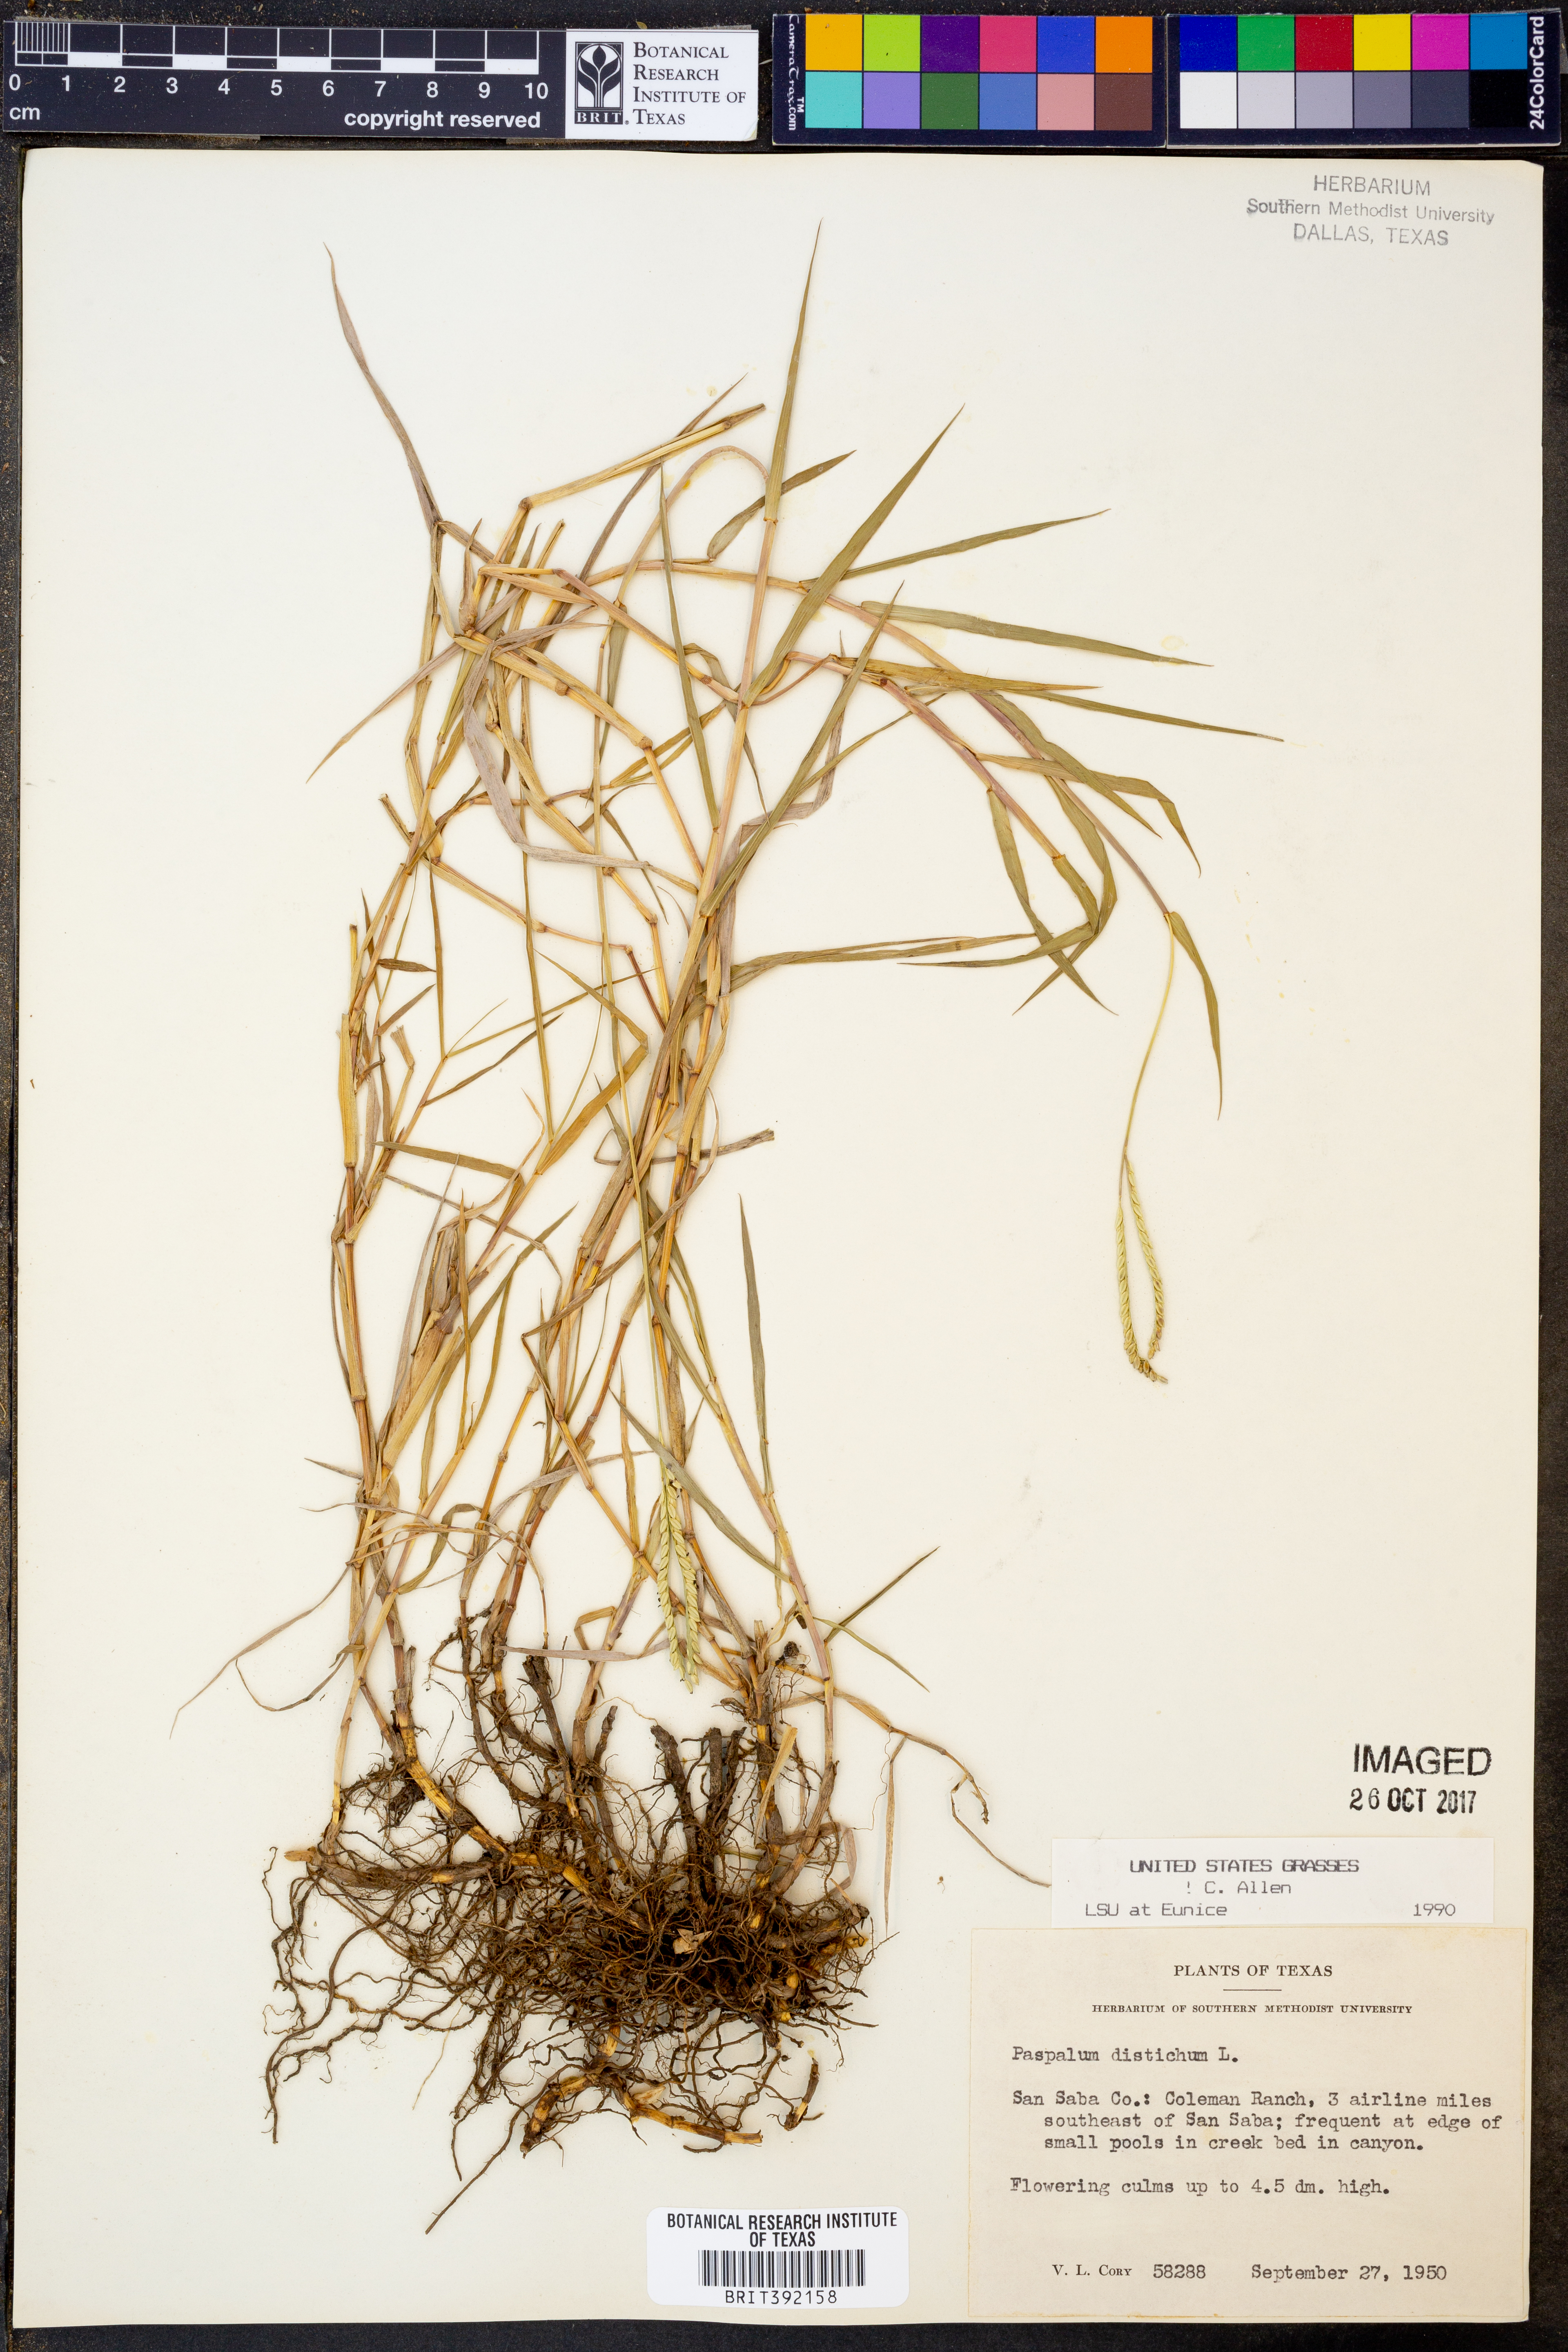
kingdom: Plantae
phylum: Tracheophyta
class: Liliopsida
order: Poales
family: Poaceae
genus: Paspalum
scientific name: Paspalum distichum
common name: Knotgrass
